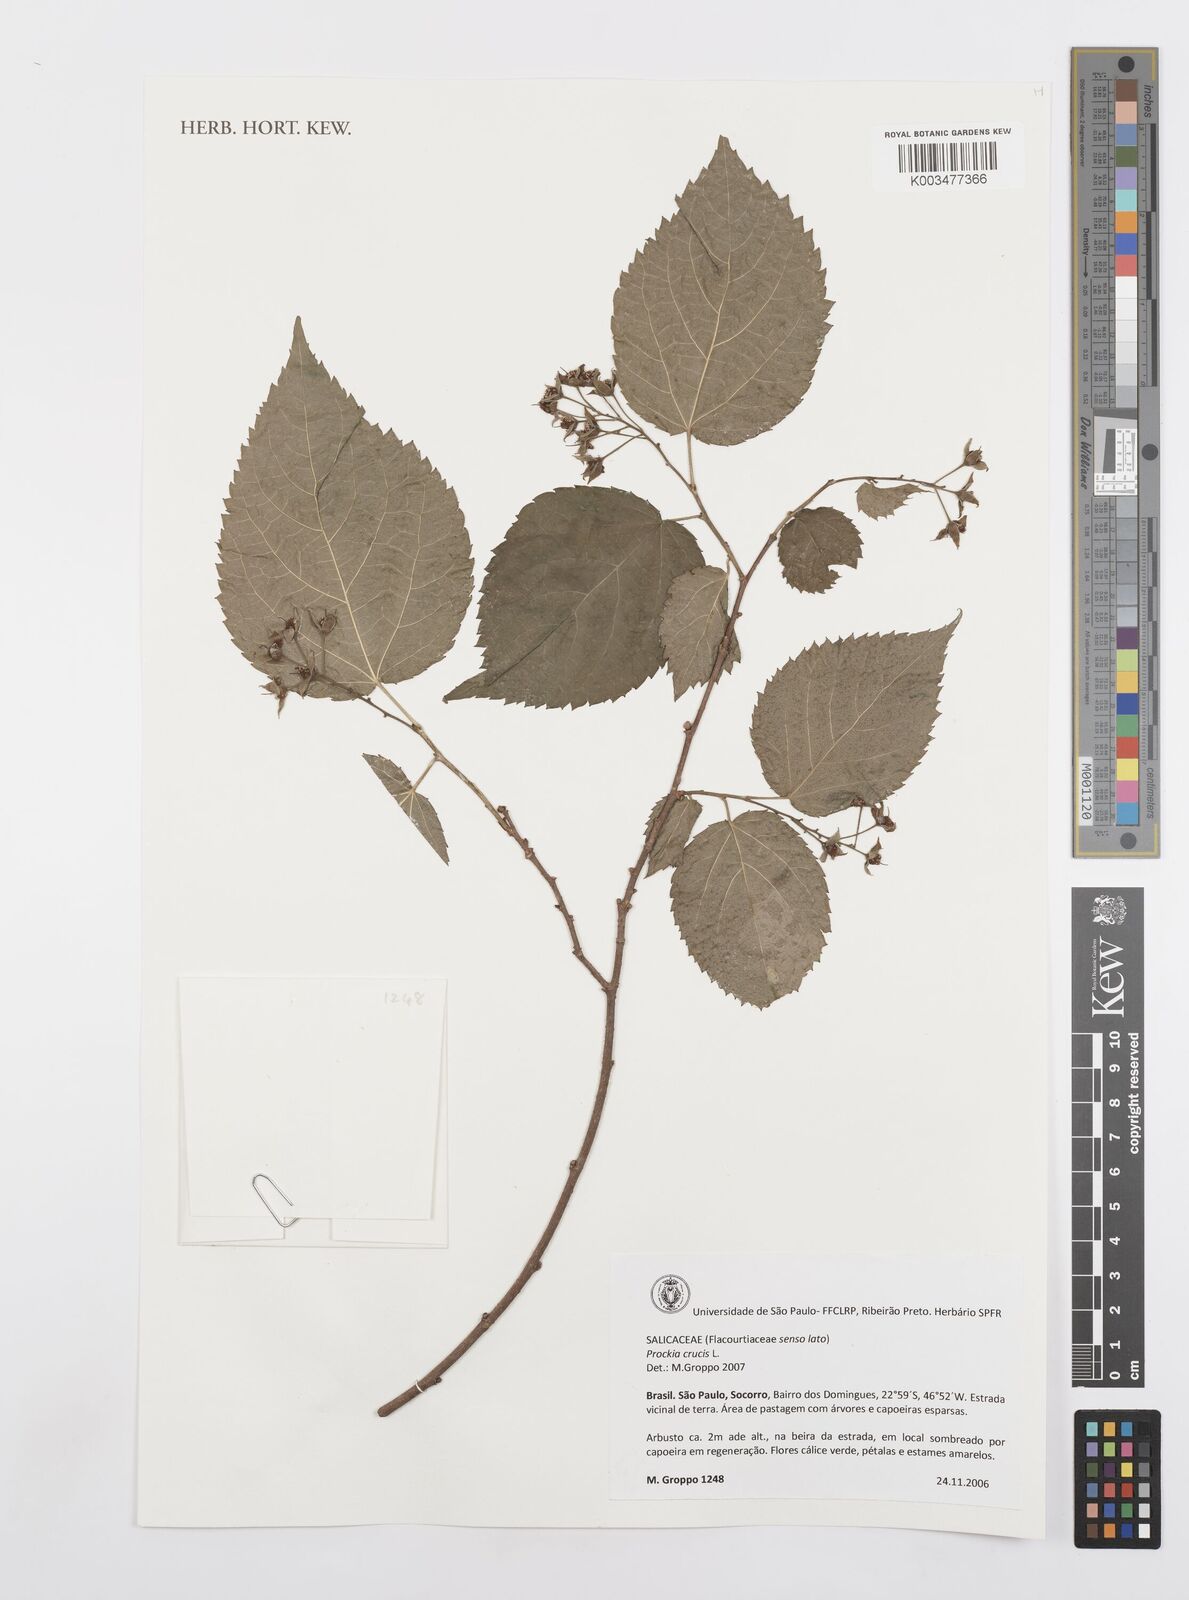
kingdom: Plantae
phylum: Tracheophyta
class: Magnoliopsida
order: Malpighiales
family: Salicaceae
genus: Prockia
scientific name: Prockia crucis
